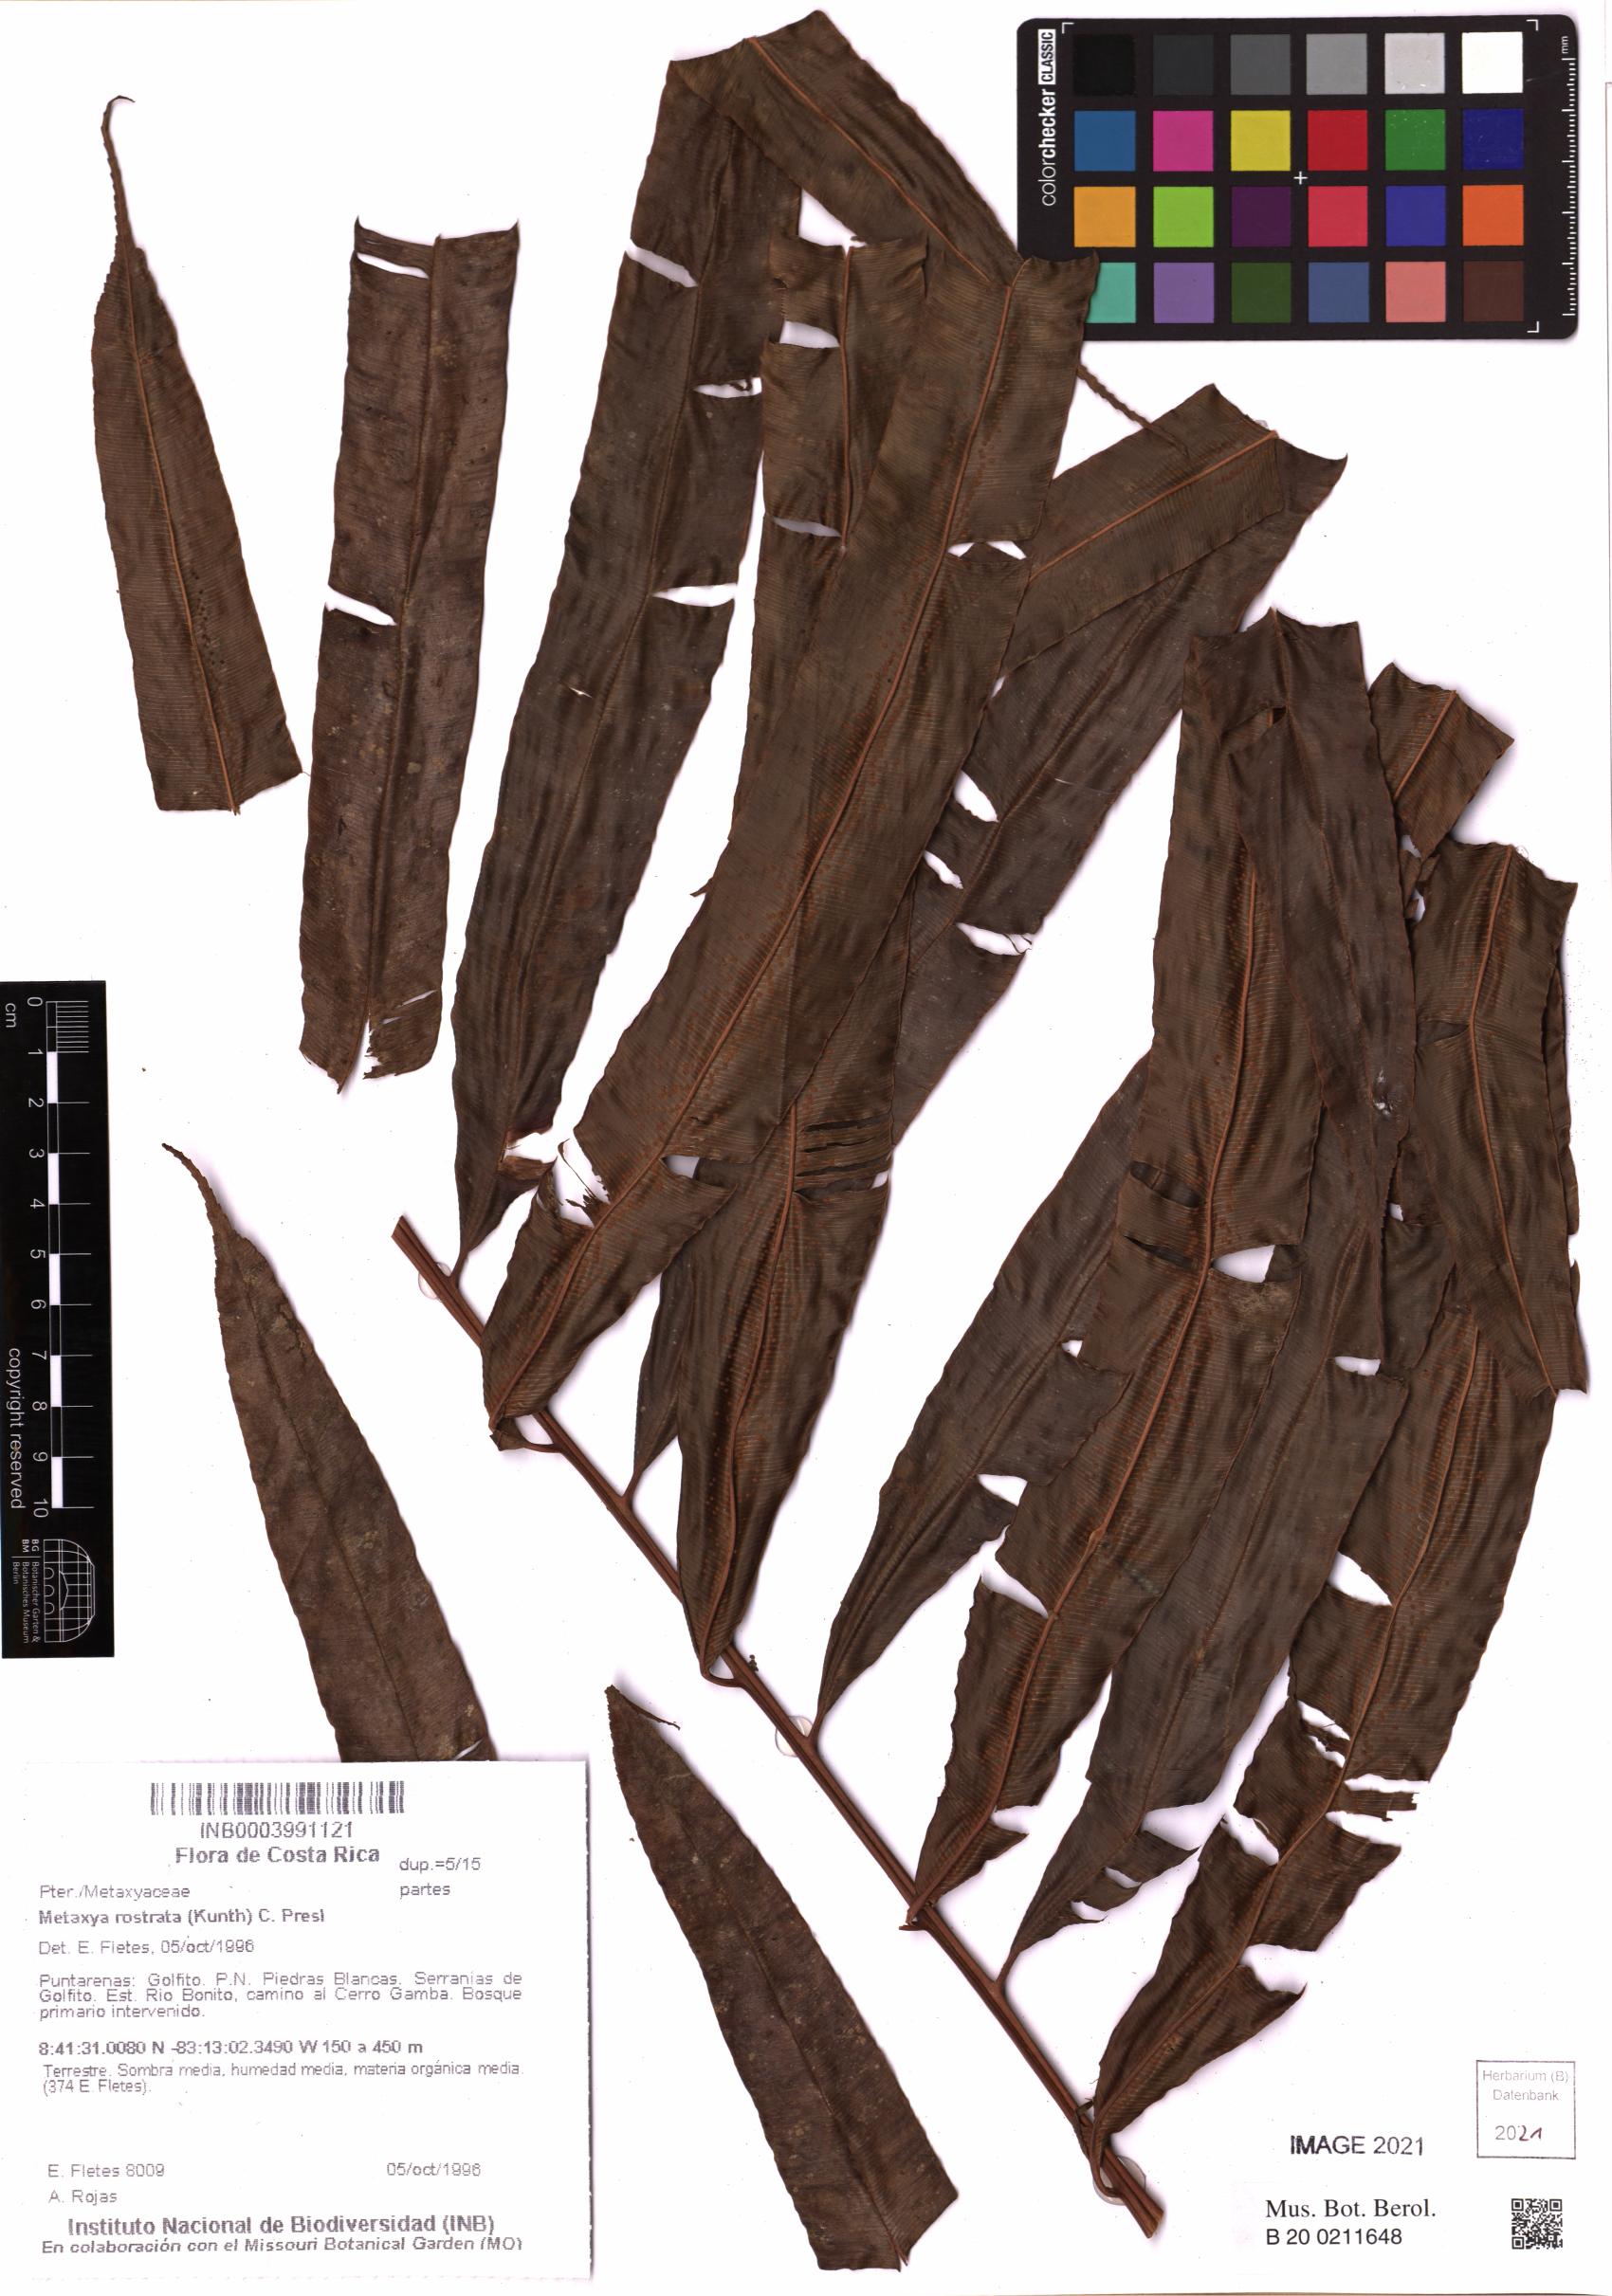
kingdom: Plantae
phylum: Tracheophyta
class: Polypodiopsida
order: Cyatheales
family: Metaxyaceae
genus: Metaxya
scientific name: Metaxya rostrata
